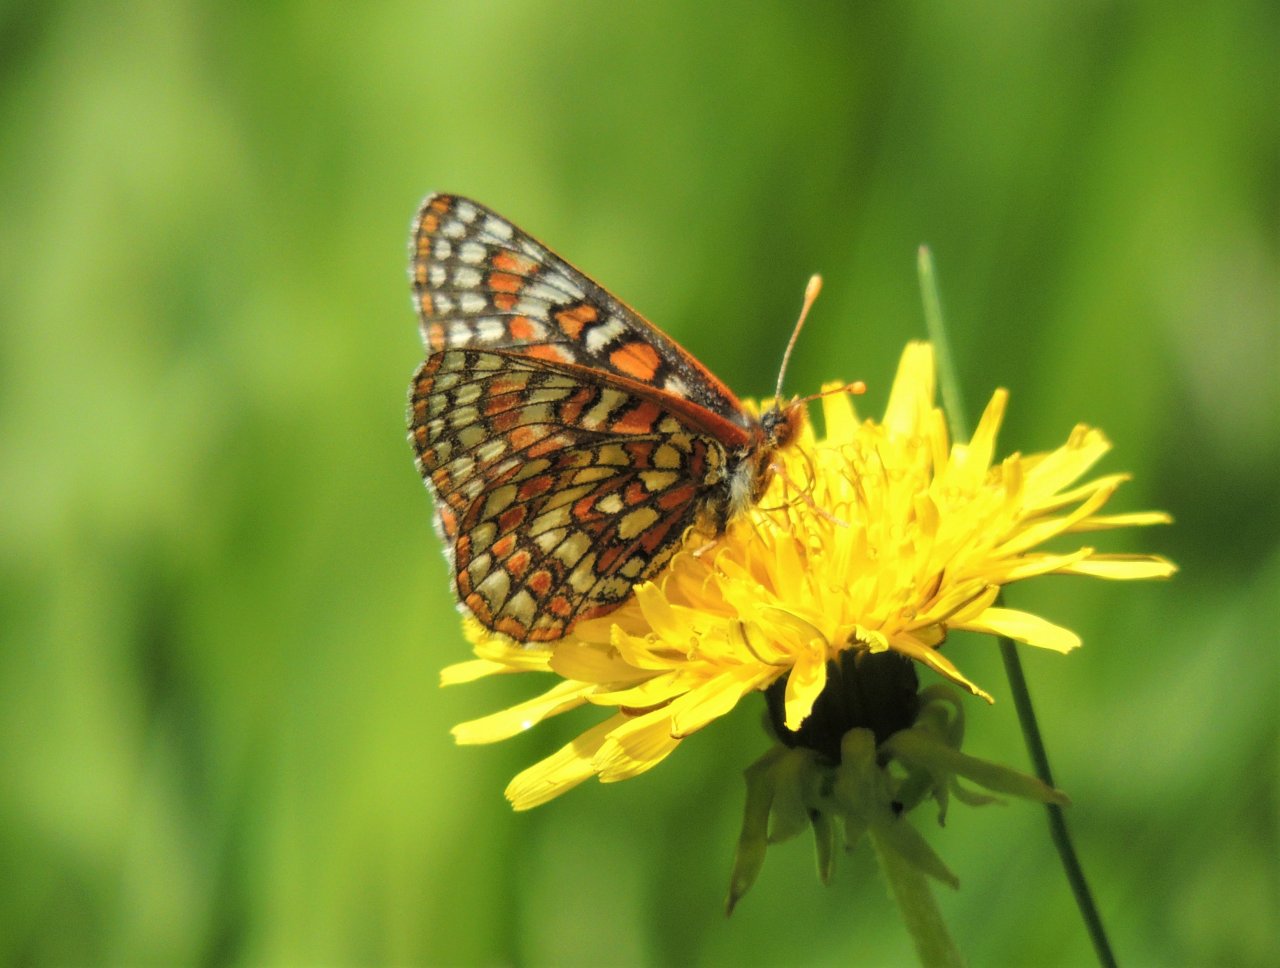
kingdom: Animalia
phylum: Arthropoda
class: Insecta
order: Lepidoptera
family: Nymphalidae
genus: Occidryas
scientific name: Occidryas editha
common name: Edith's Checkerspot
